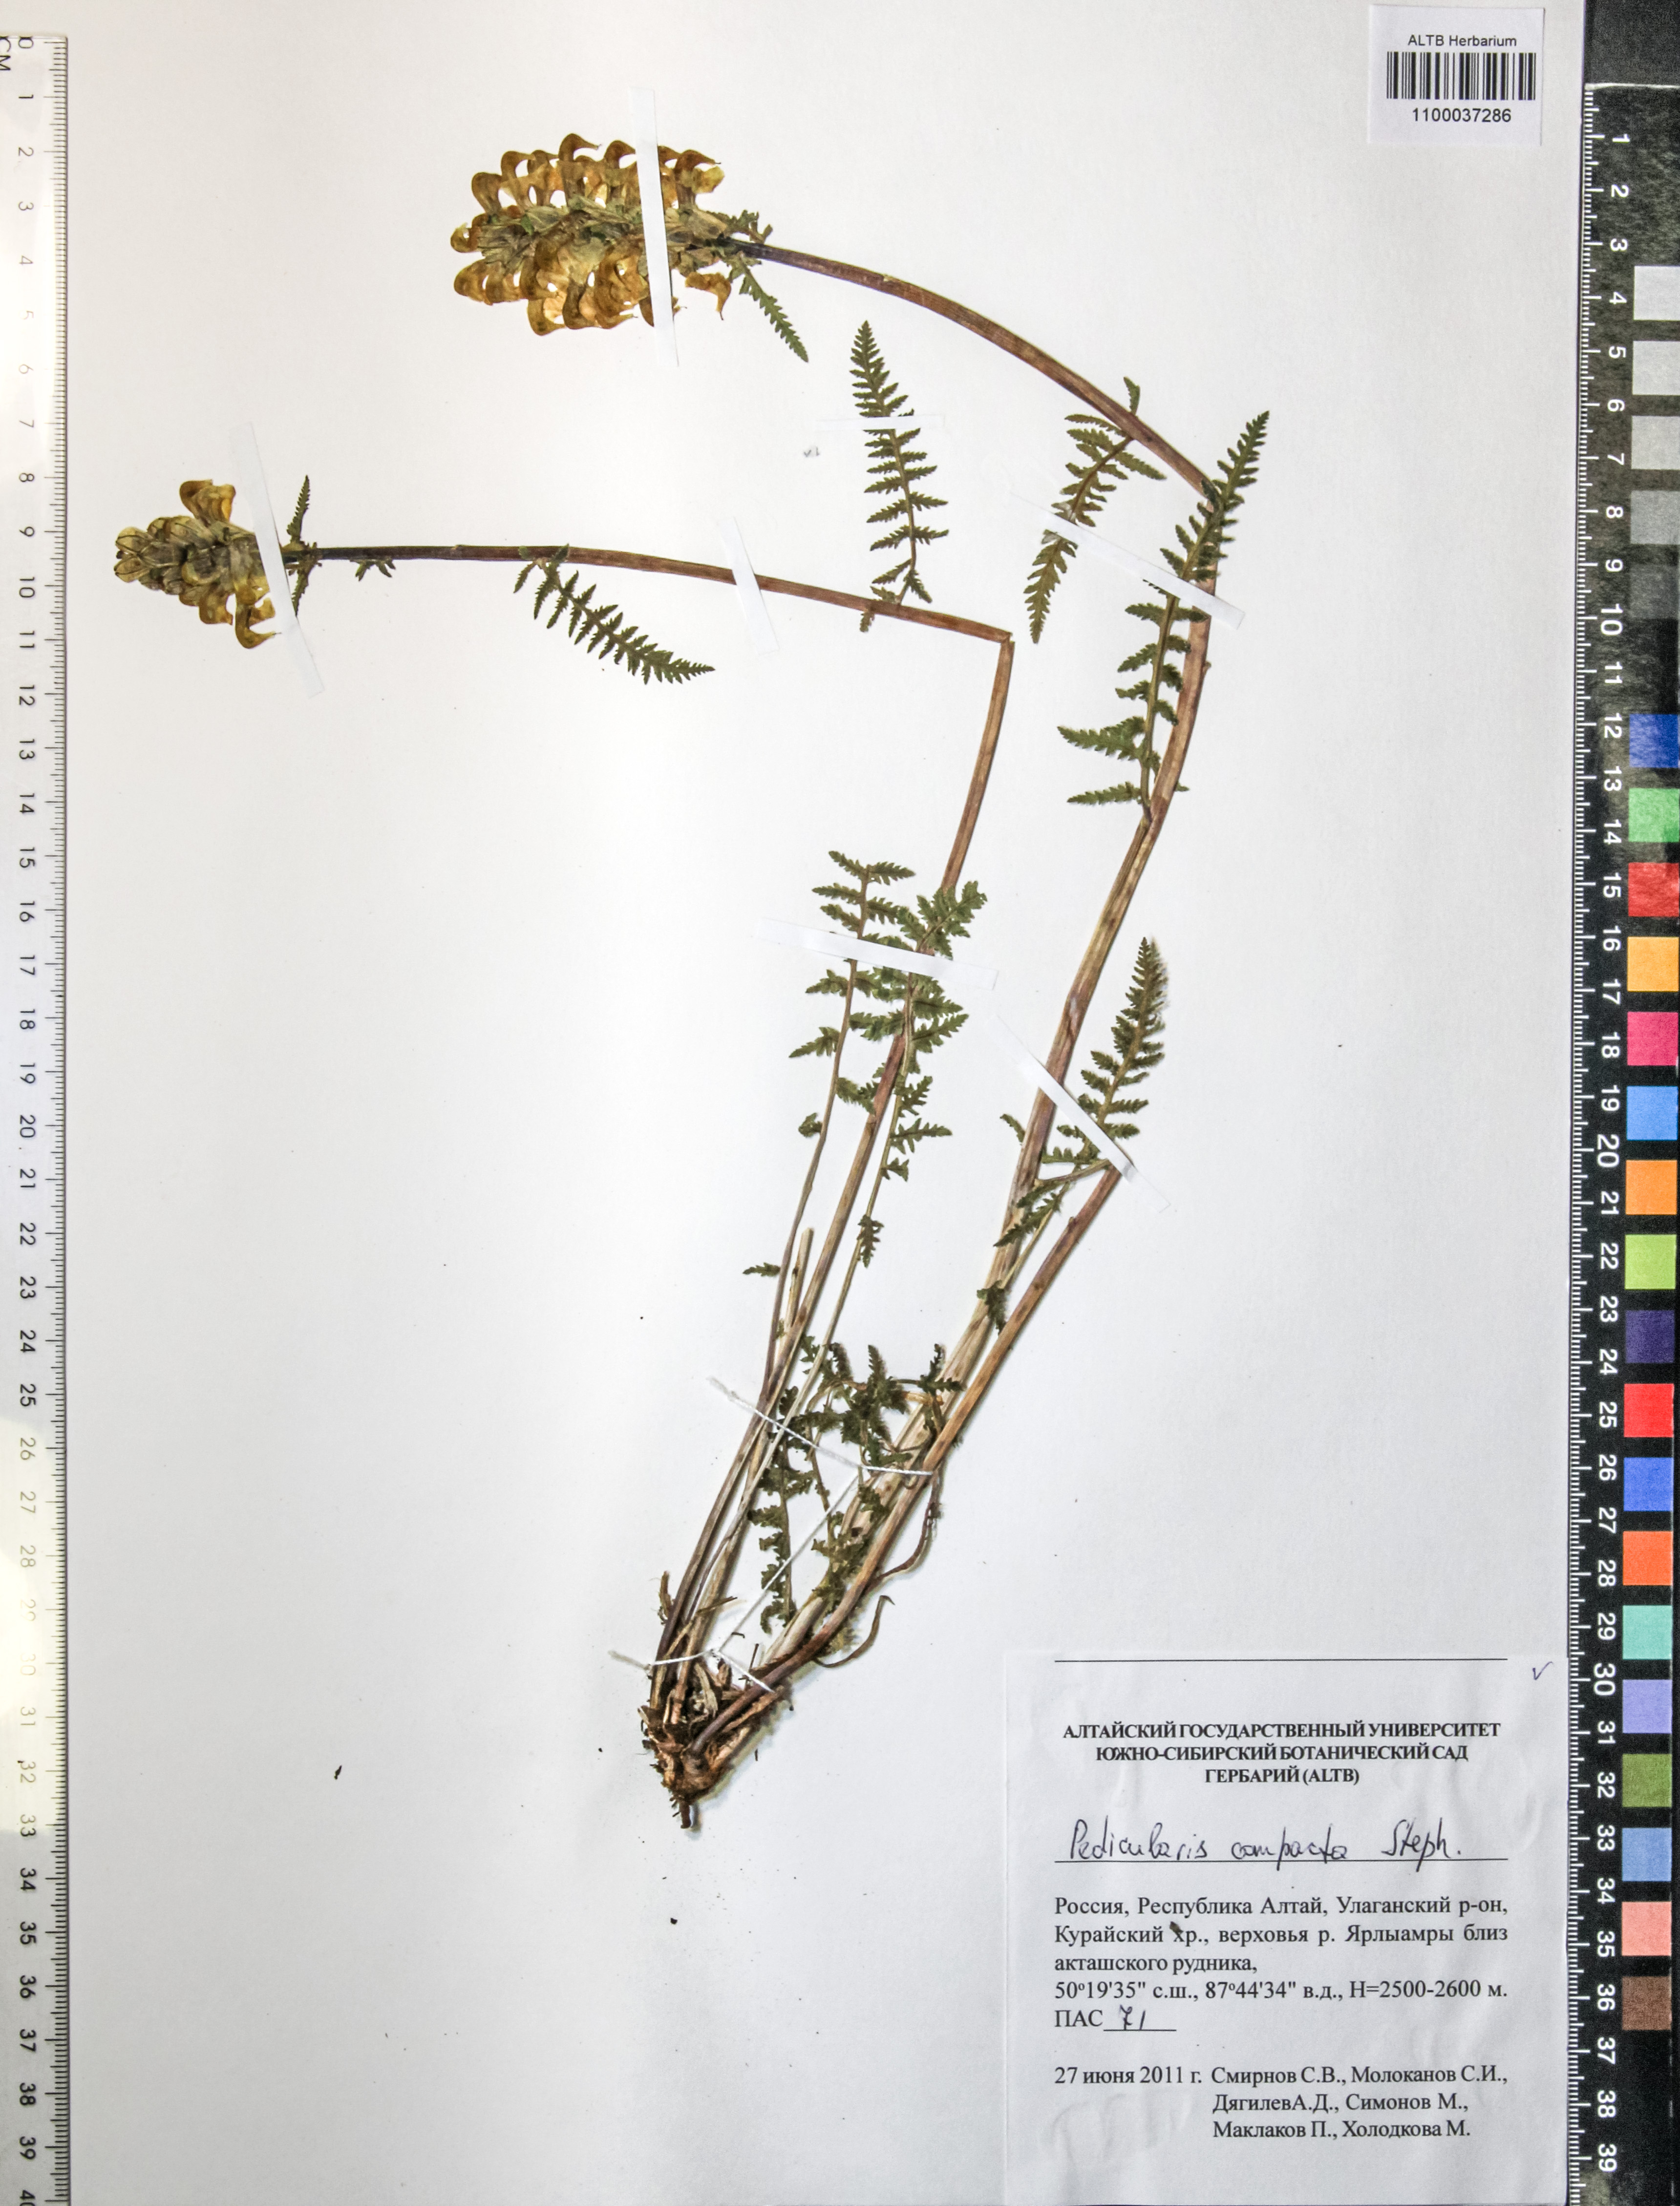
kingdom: Plantae
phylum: Tracheophyta
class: Magnoliopsida
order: Lamiales
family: Orobanchaceae
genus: Pedicularis
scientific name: Pedicularis compacta
